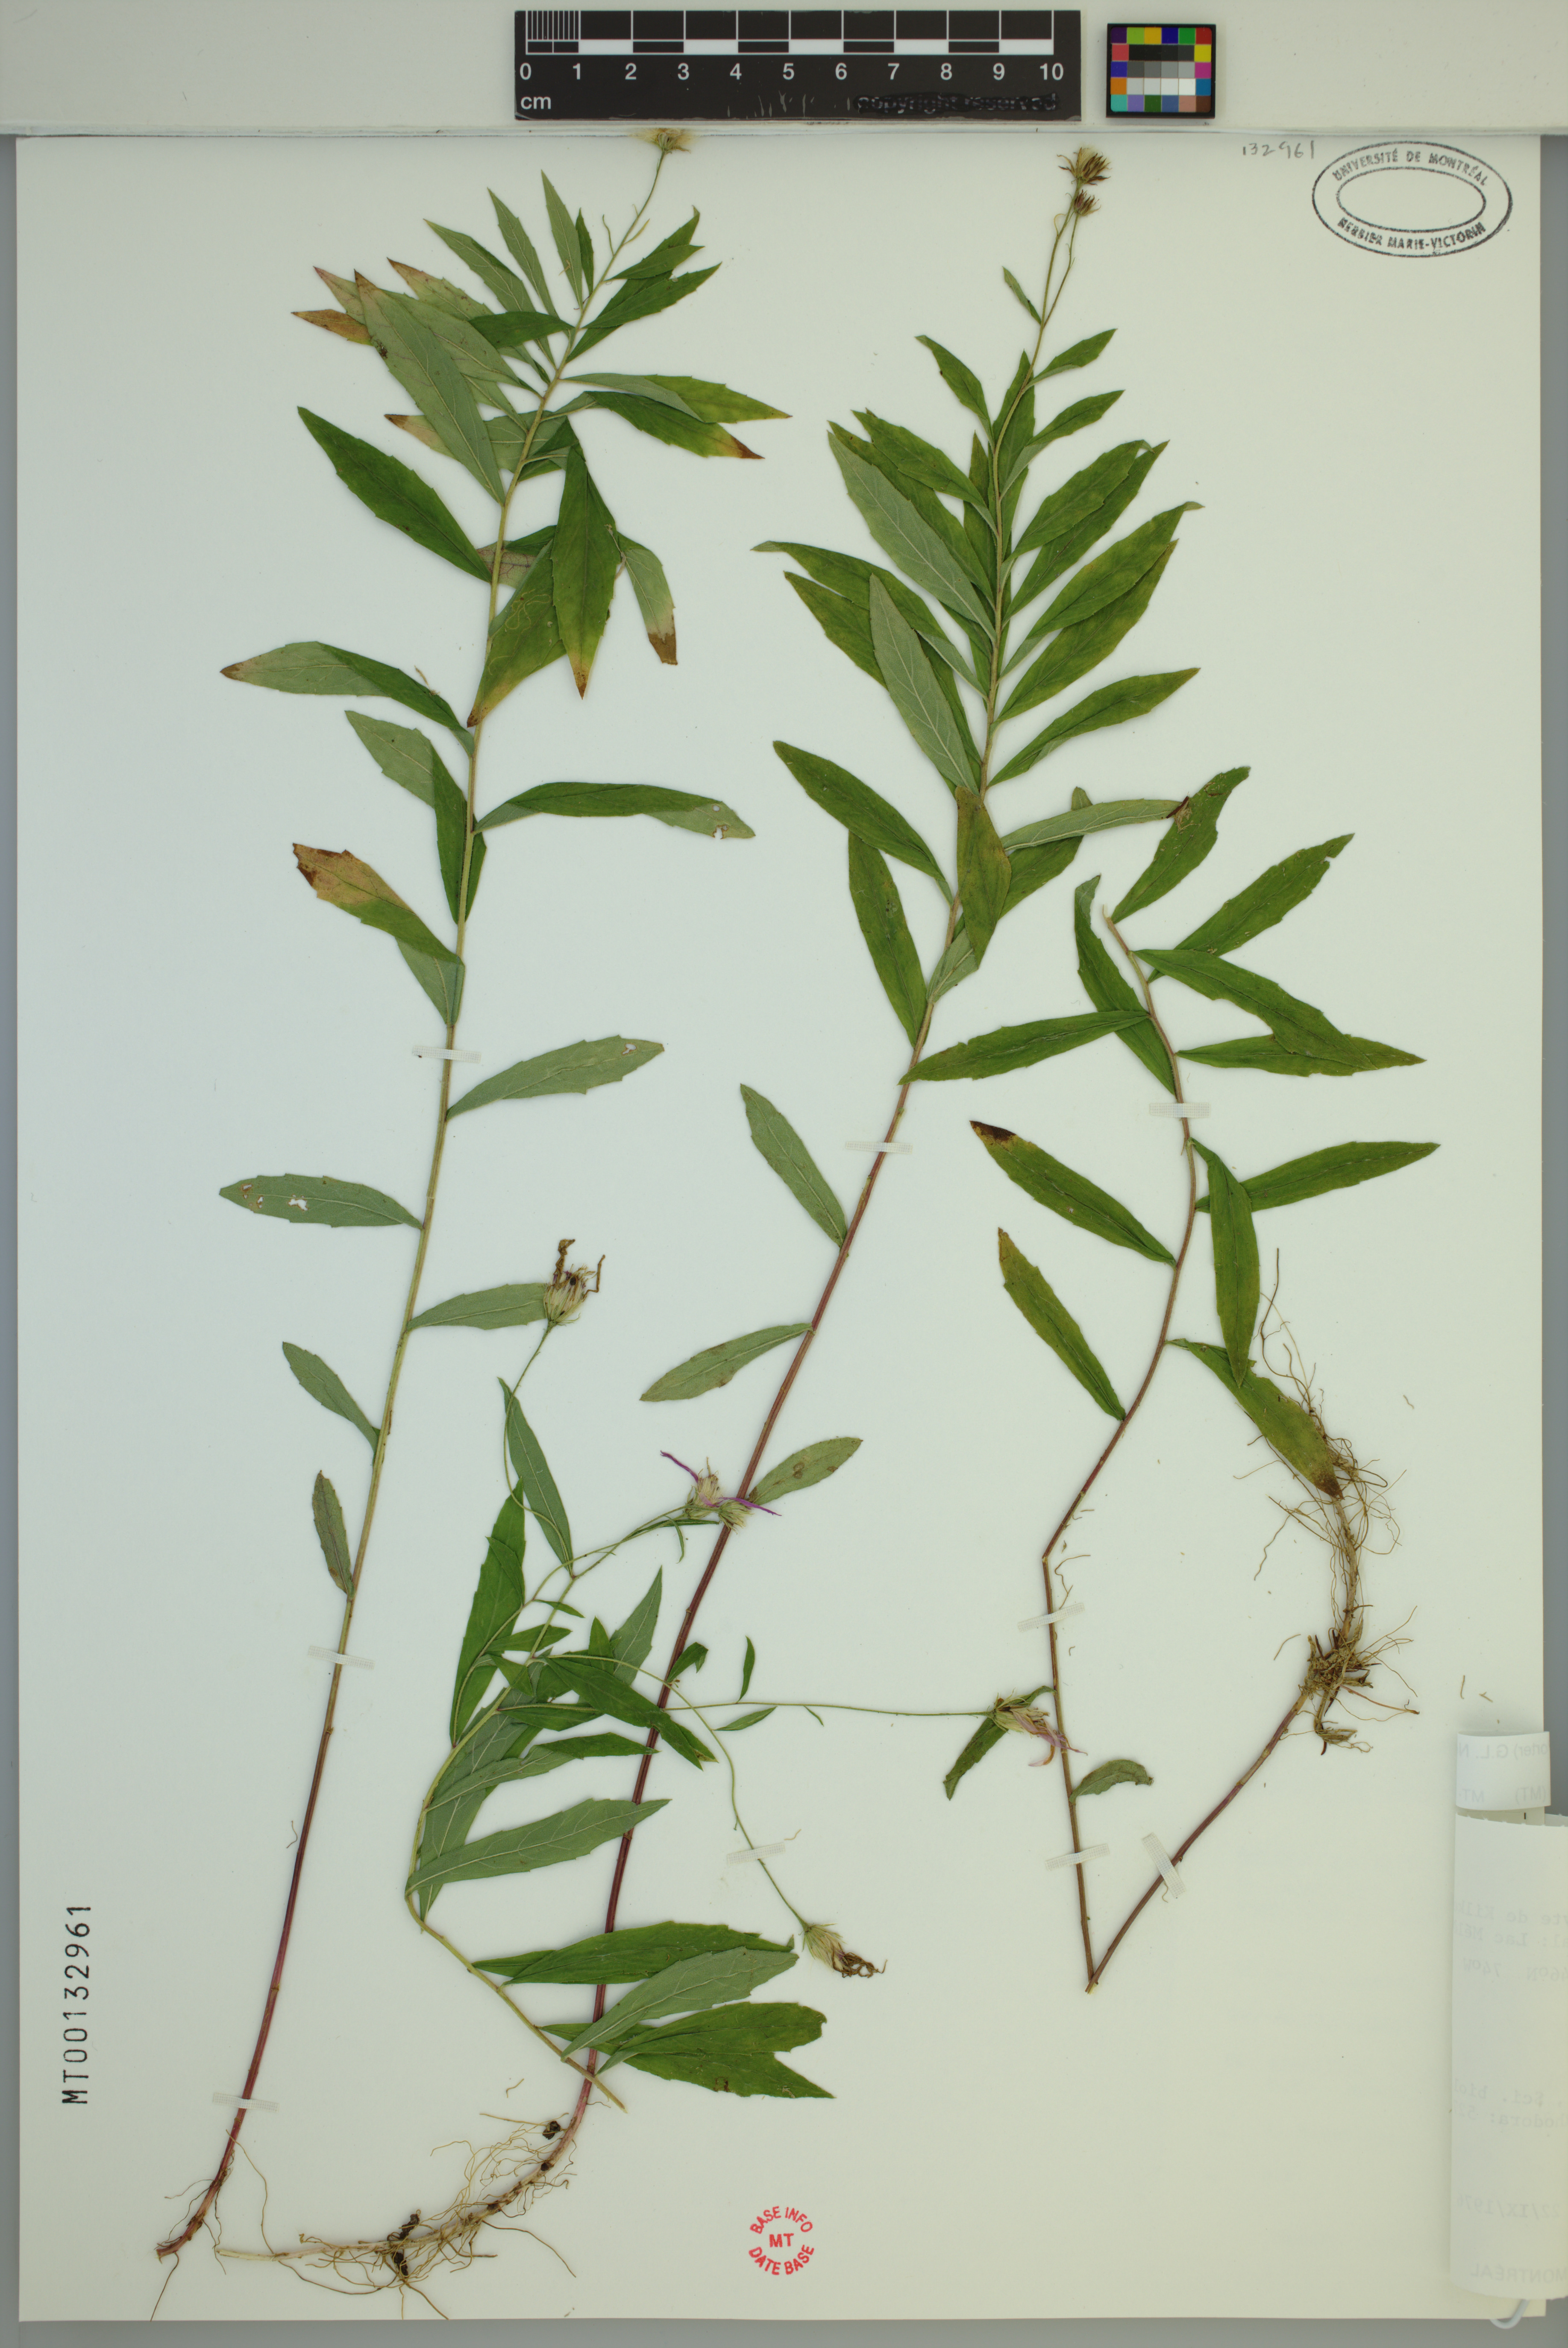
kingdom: Plantae
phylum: Tracheophyta
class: Magnoliopsida
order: Asterales
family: Asteraceae
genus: Oclemena
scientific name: Oclemena blakei
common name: Blake's aster
